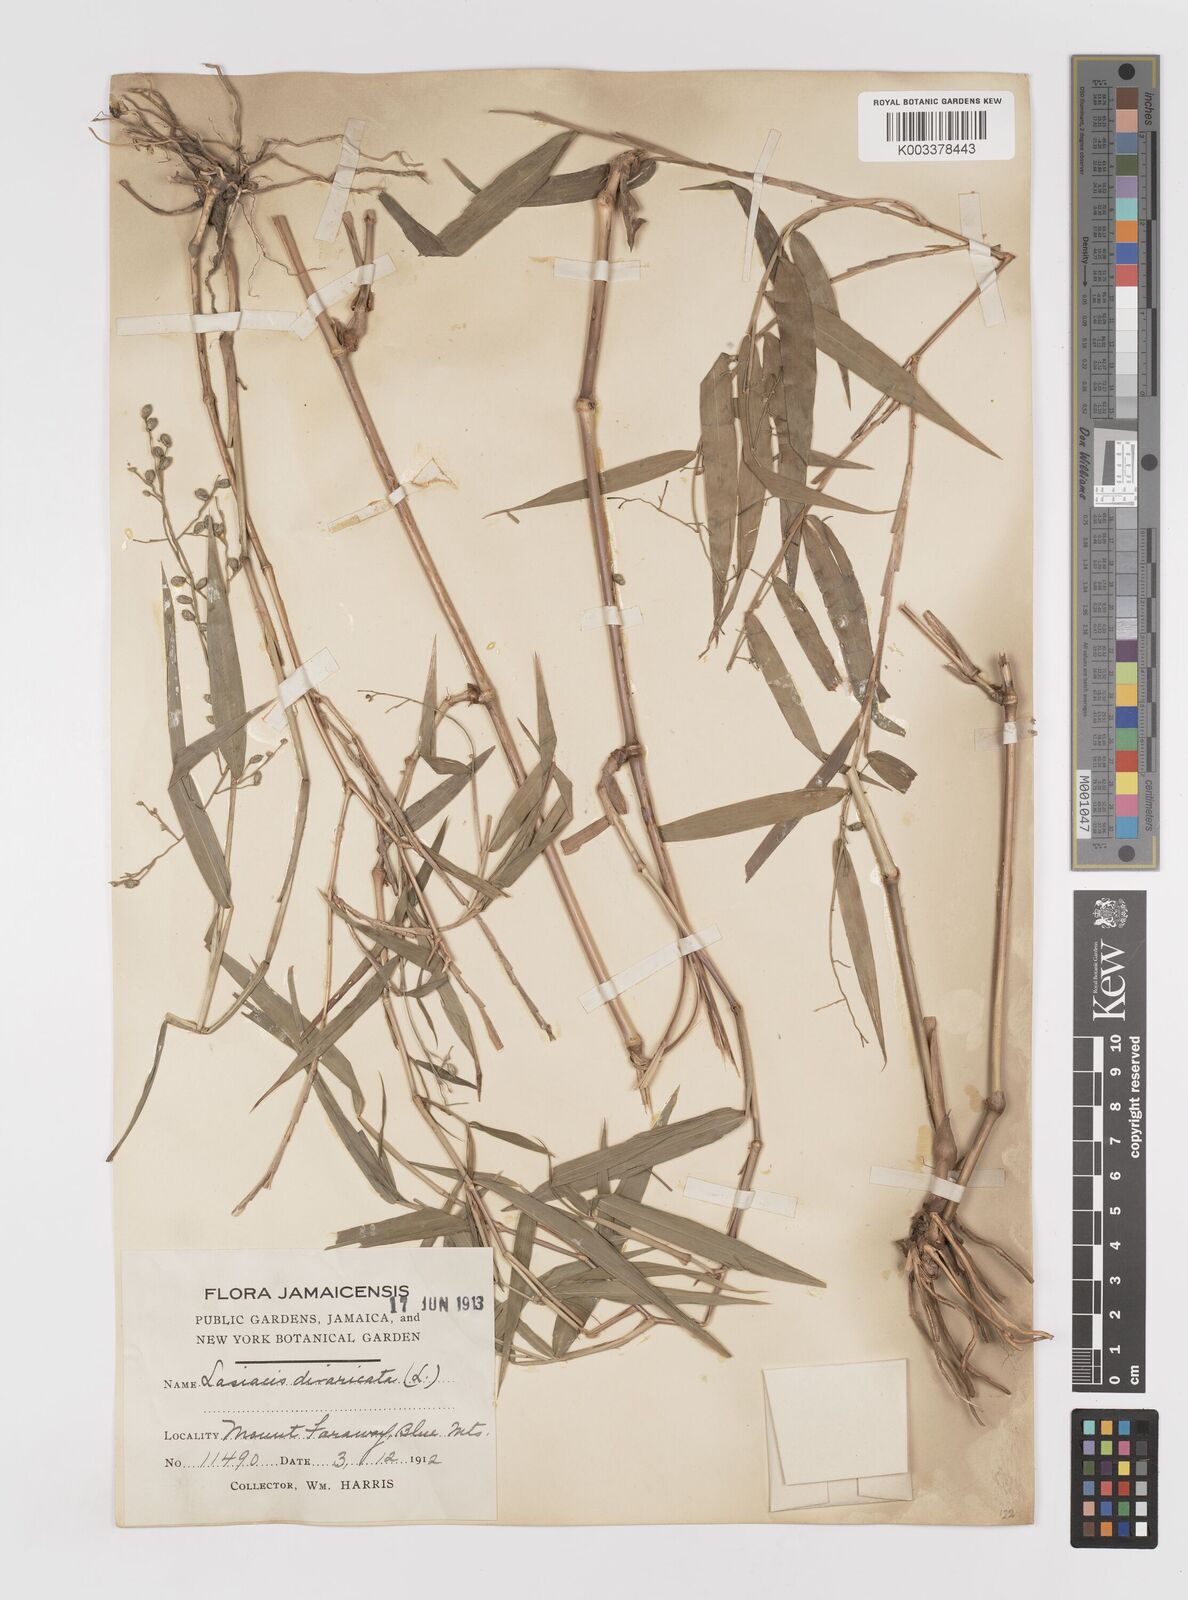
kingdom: Plantae
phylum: Tracheophyta
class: Liliopsida
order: Poales
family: Poaceae
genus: Lasiacis
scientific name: Lasiacis divaricata
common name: Smallcane
